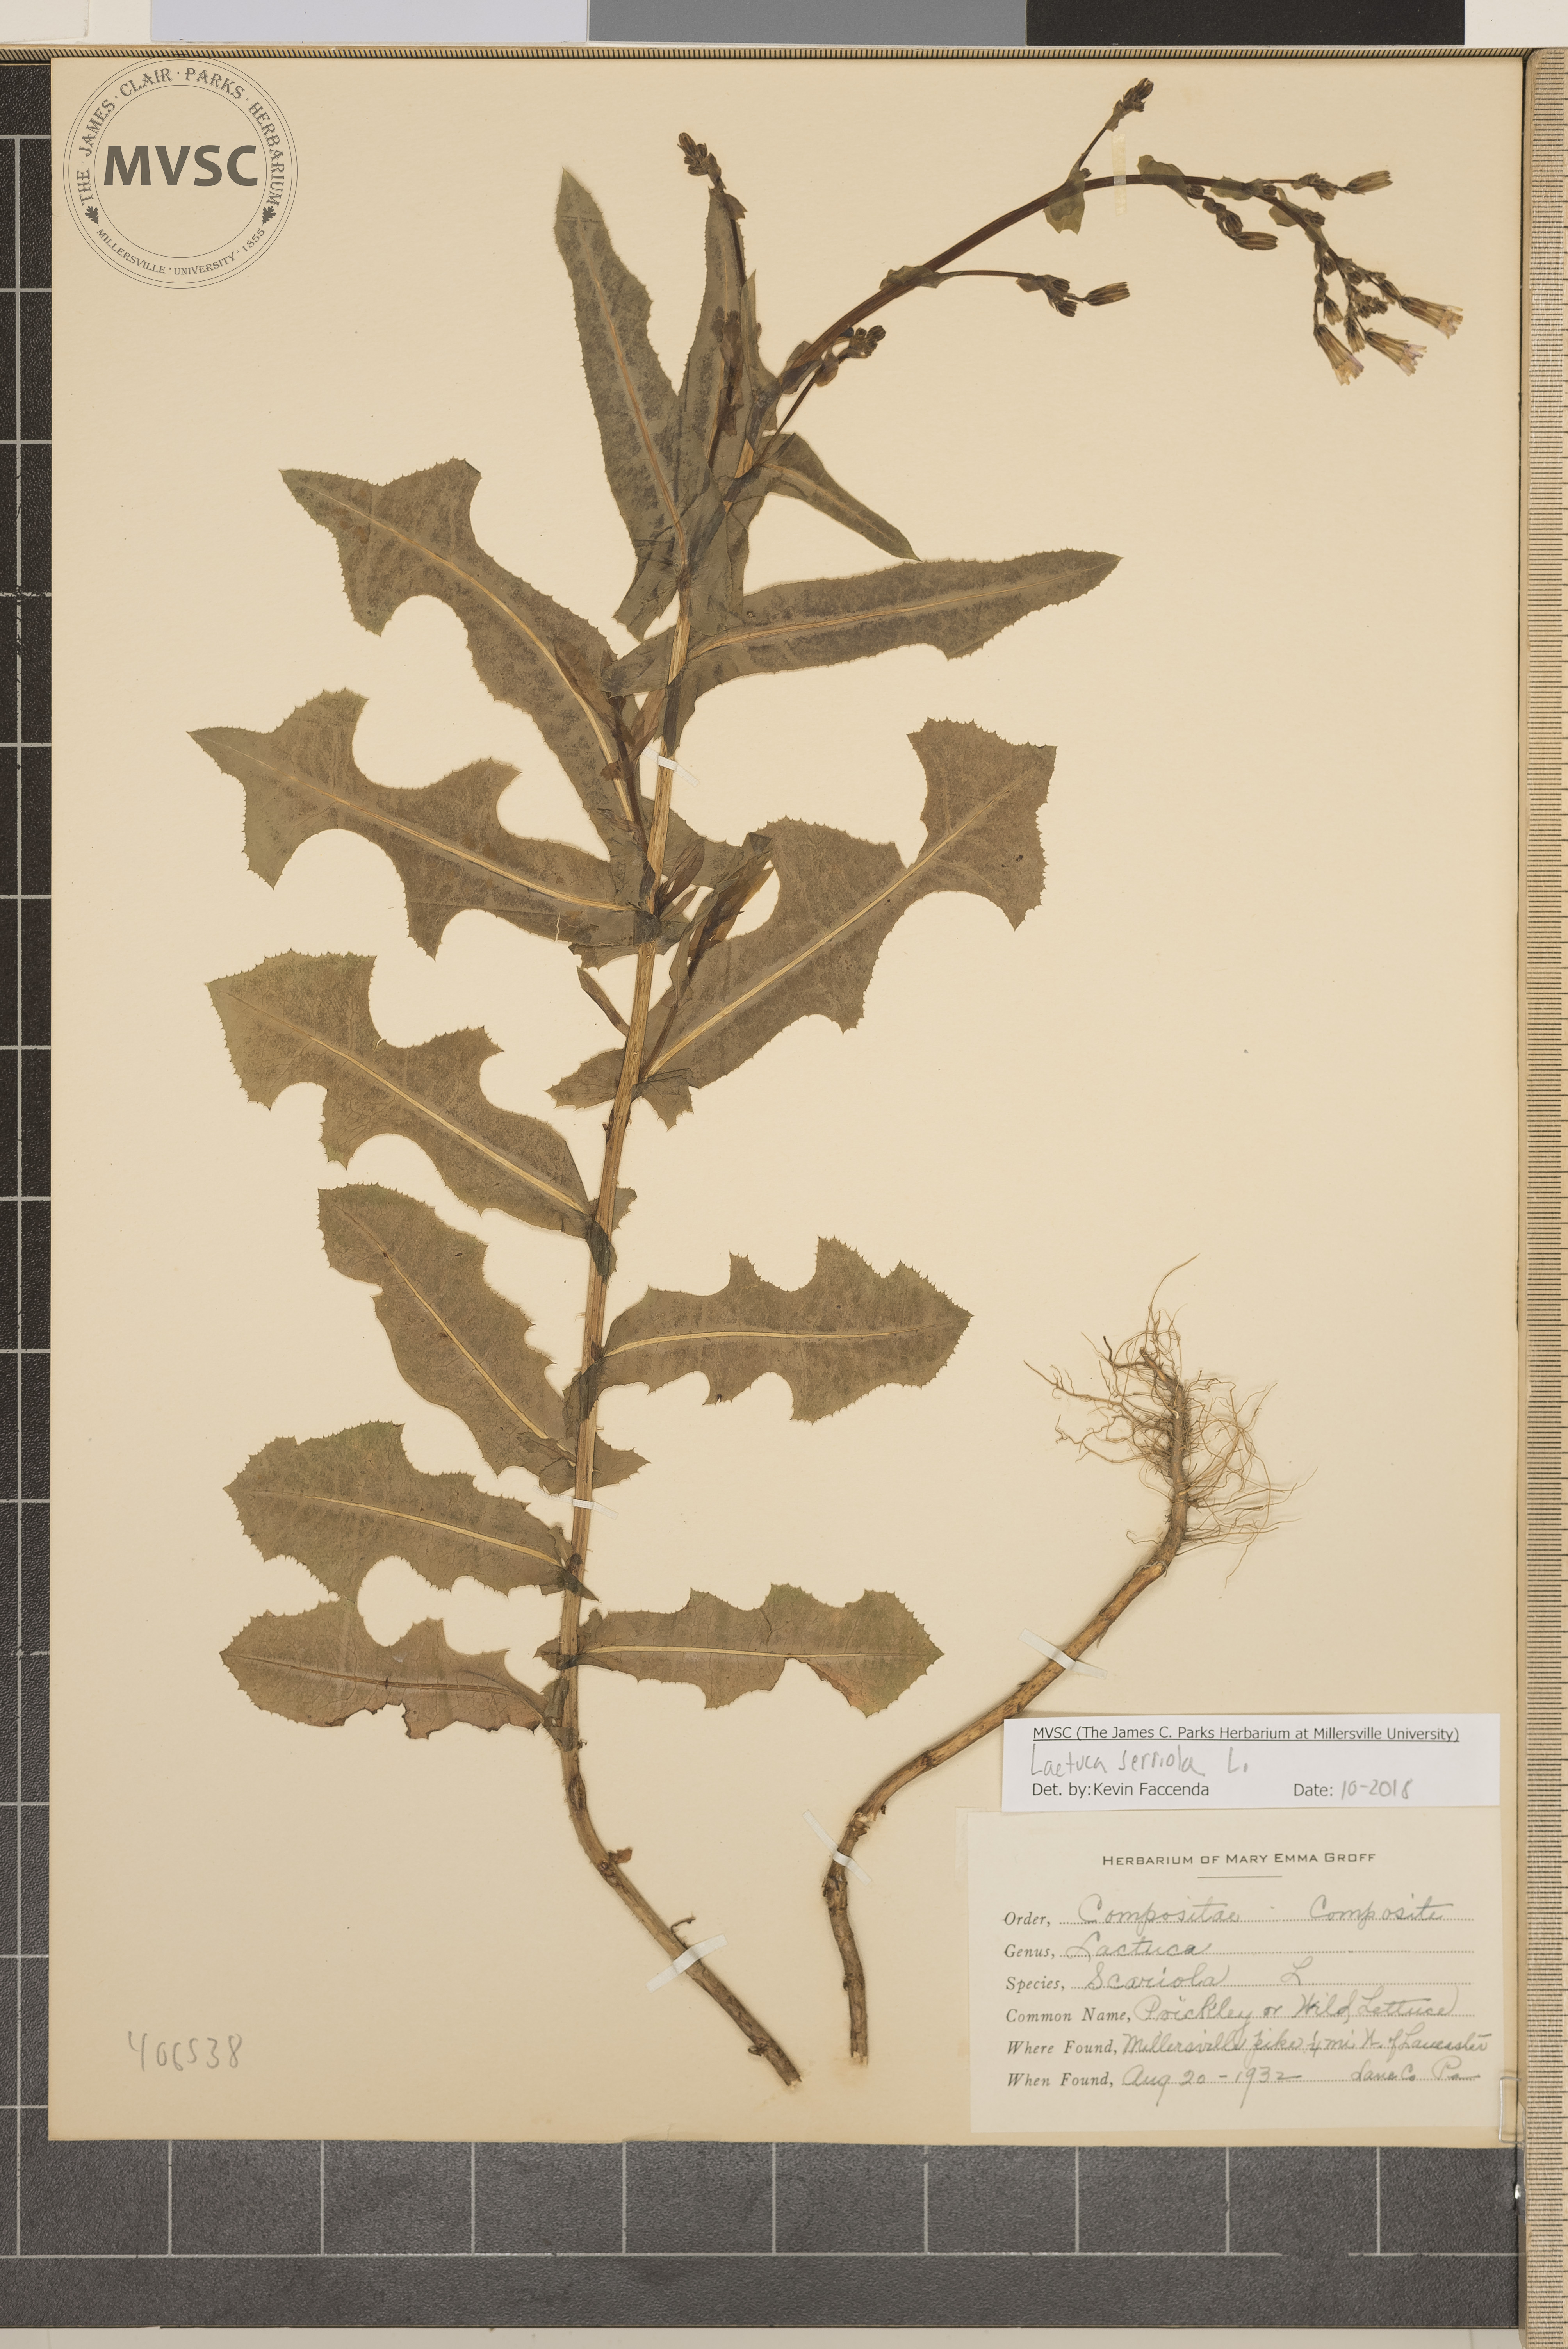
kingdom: Plantae
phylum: Tracheophyta
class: Magnoliopsida
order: Asterales
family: Asteraceae
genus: Lactuca
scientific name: Lactuca serriola
